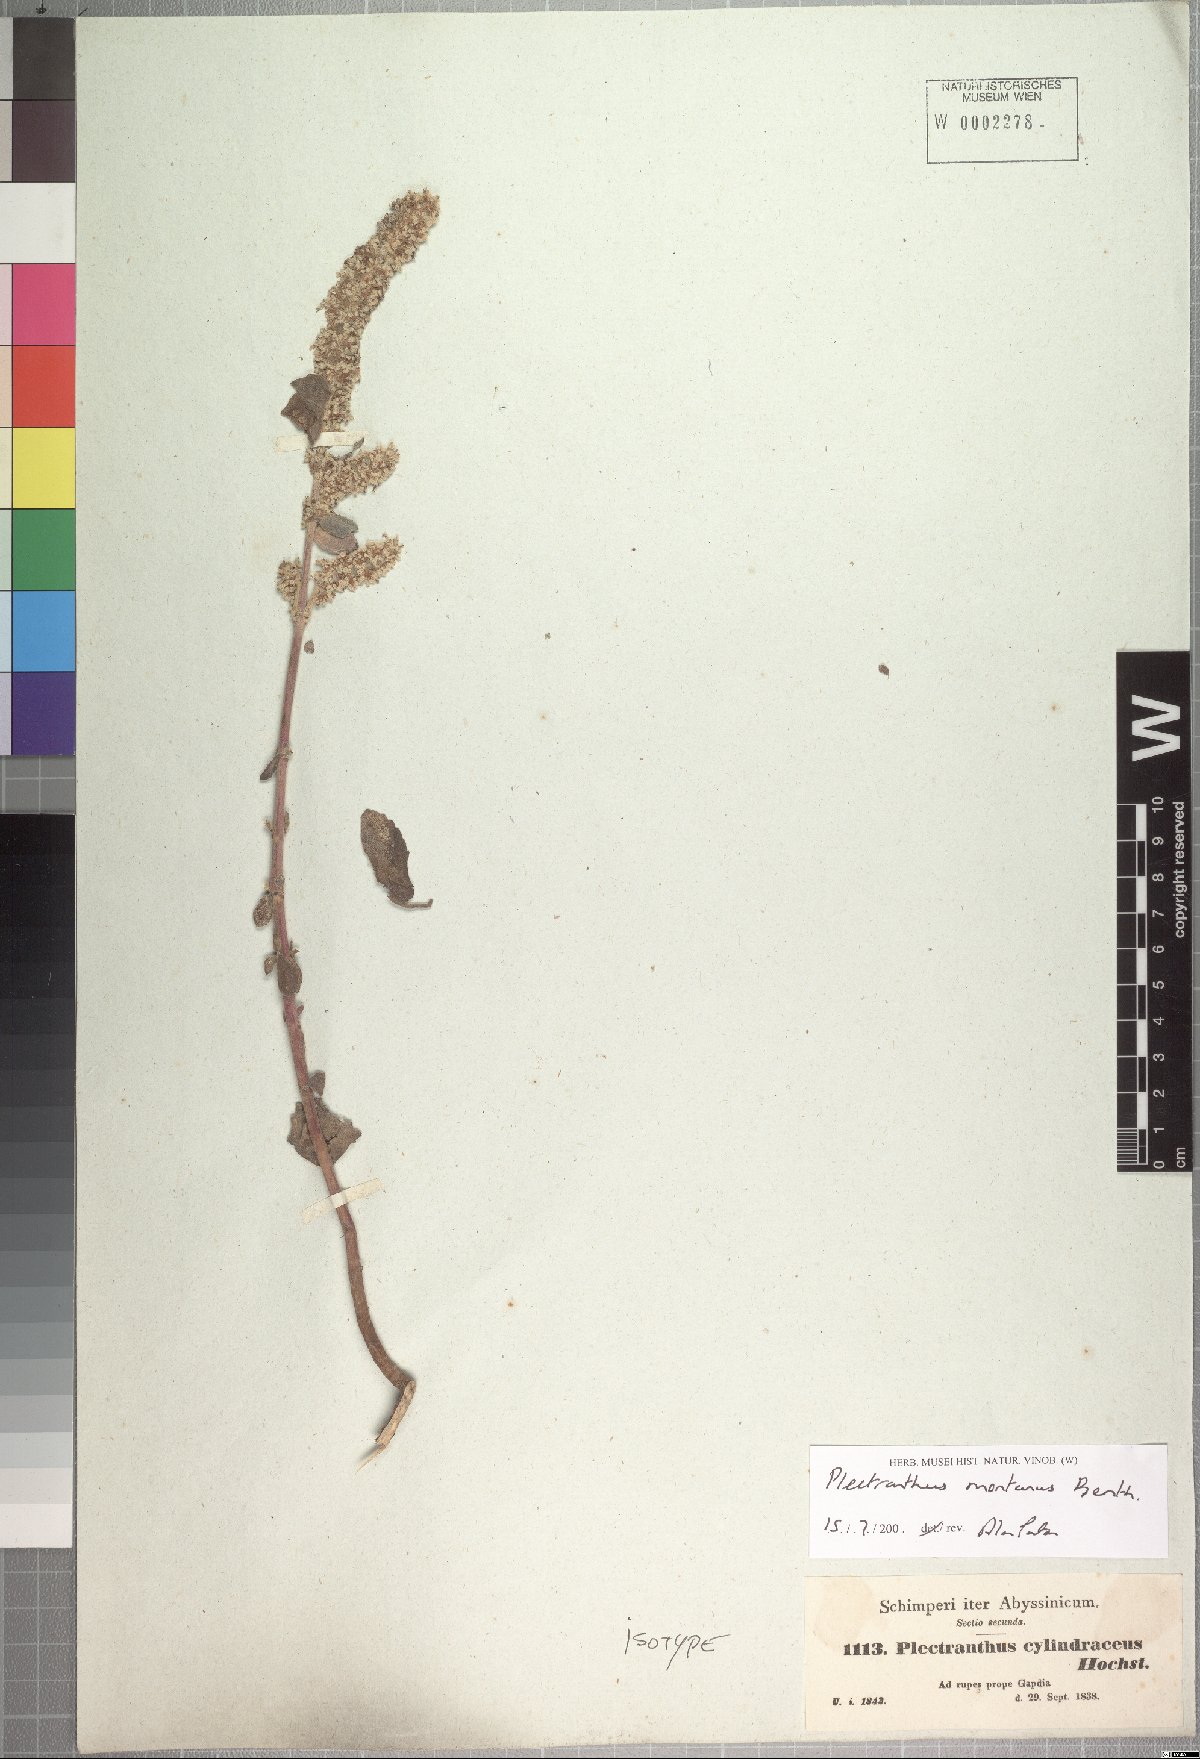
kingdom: Plantae
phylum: Tracheophyta
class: Magnoliopsida
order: Lamiales
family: Lamiaceae
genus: Coleus
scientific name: Coleus cylindraceus
